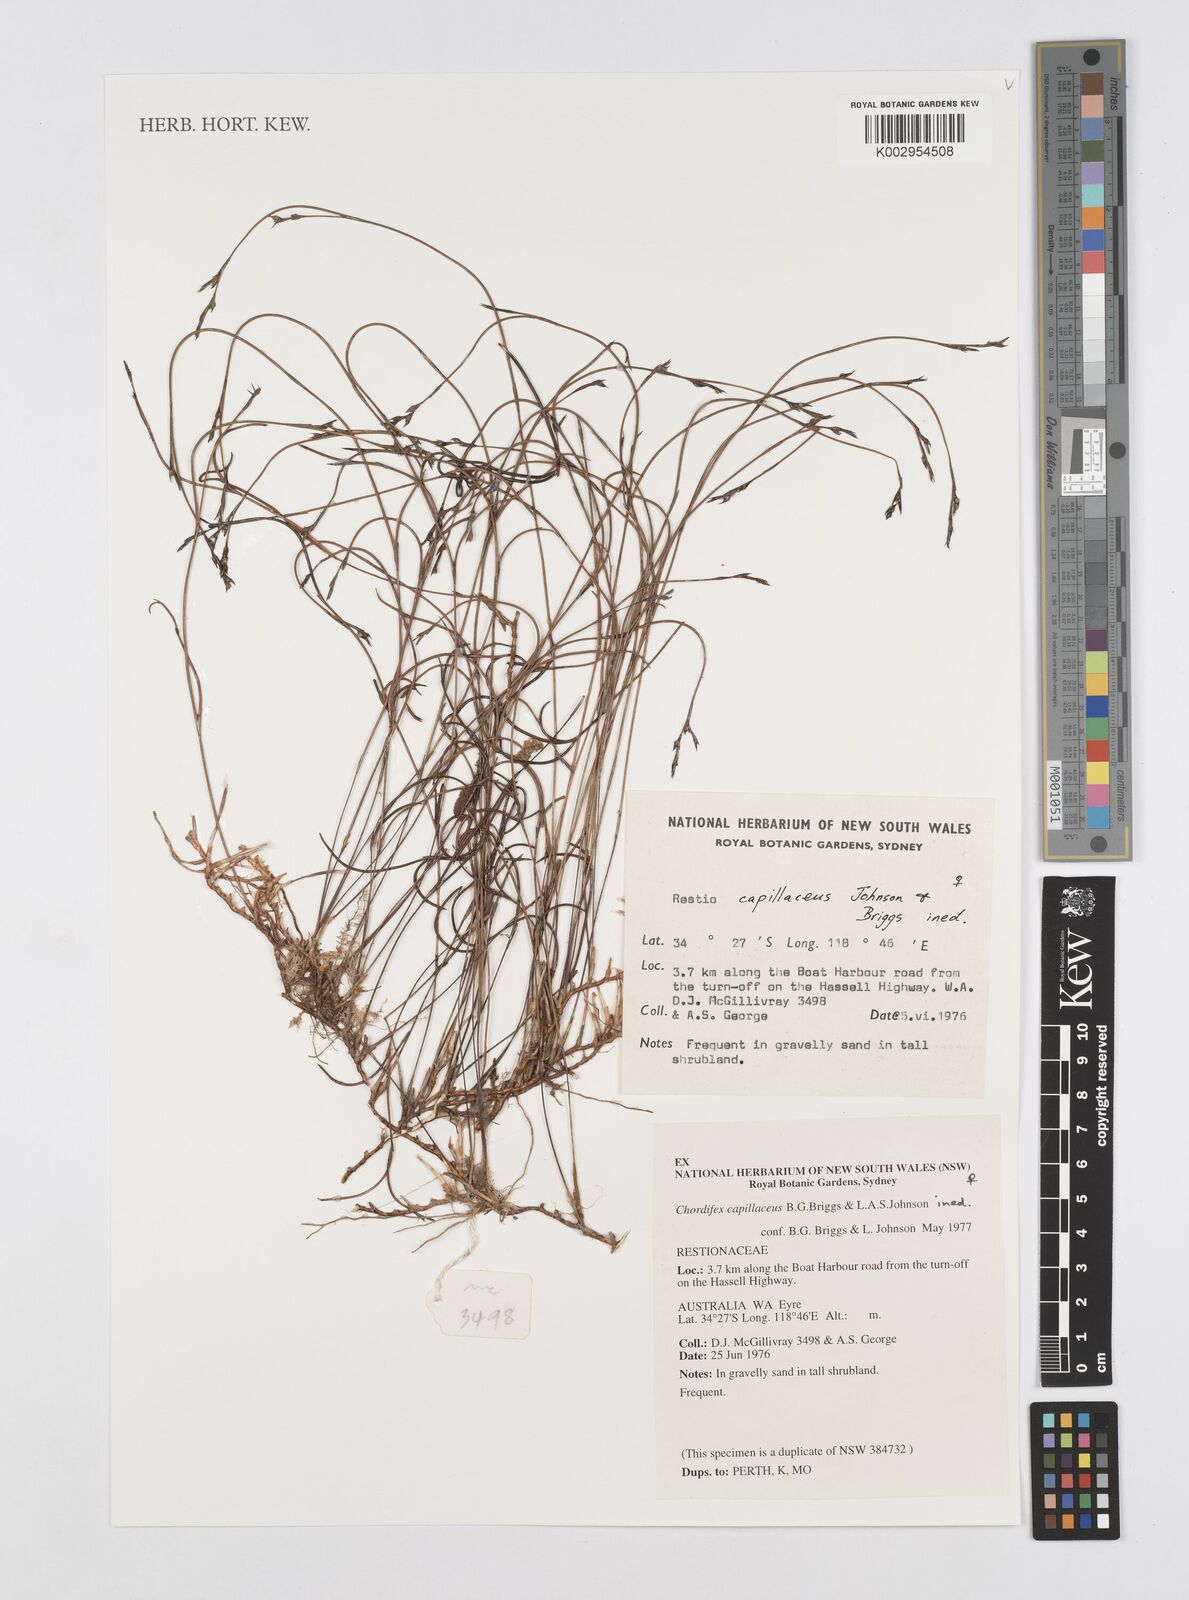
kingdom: Plantae
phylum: Tracheophyta
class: Liliopsida
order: Poales
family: Restionaceae
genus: Chordifex
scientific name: Chordifex capillaceus
